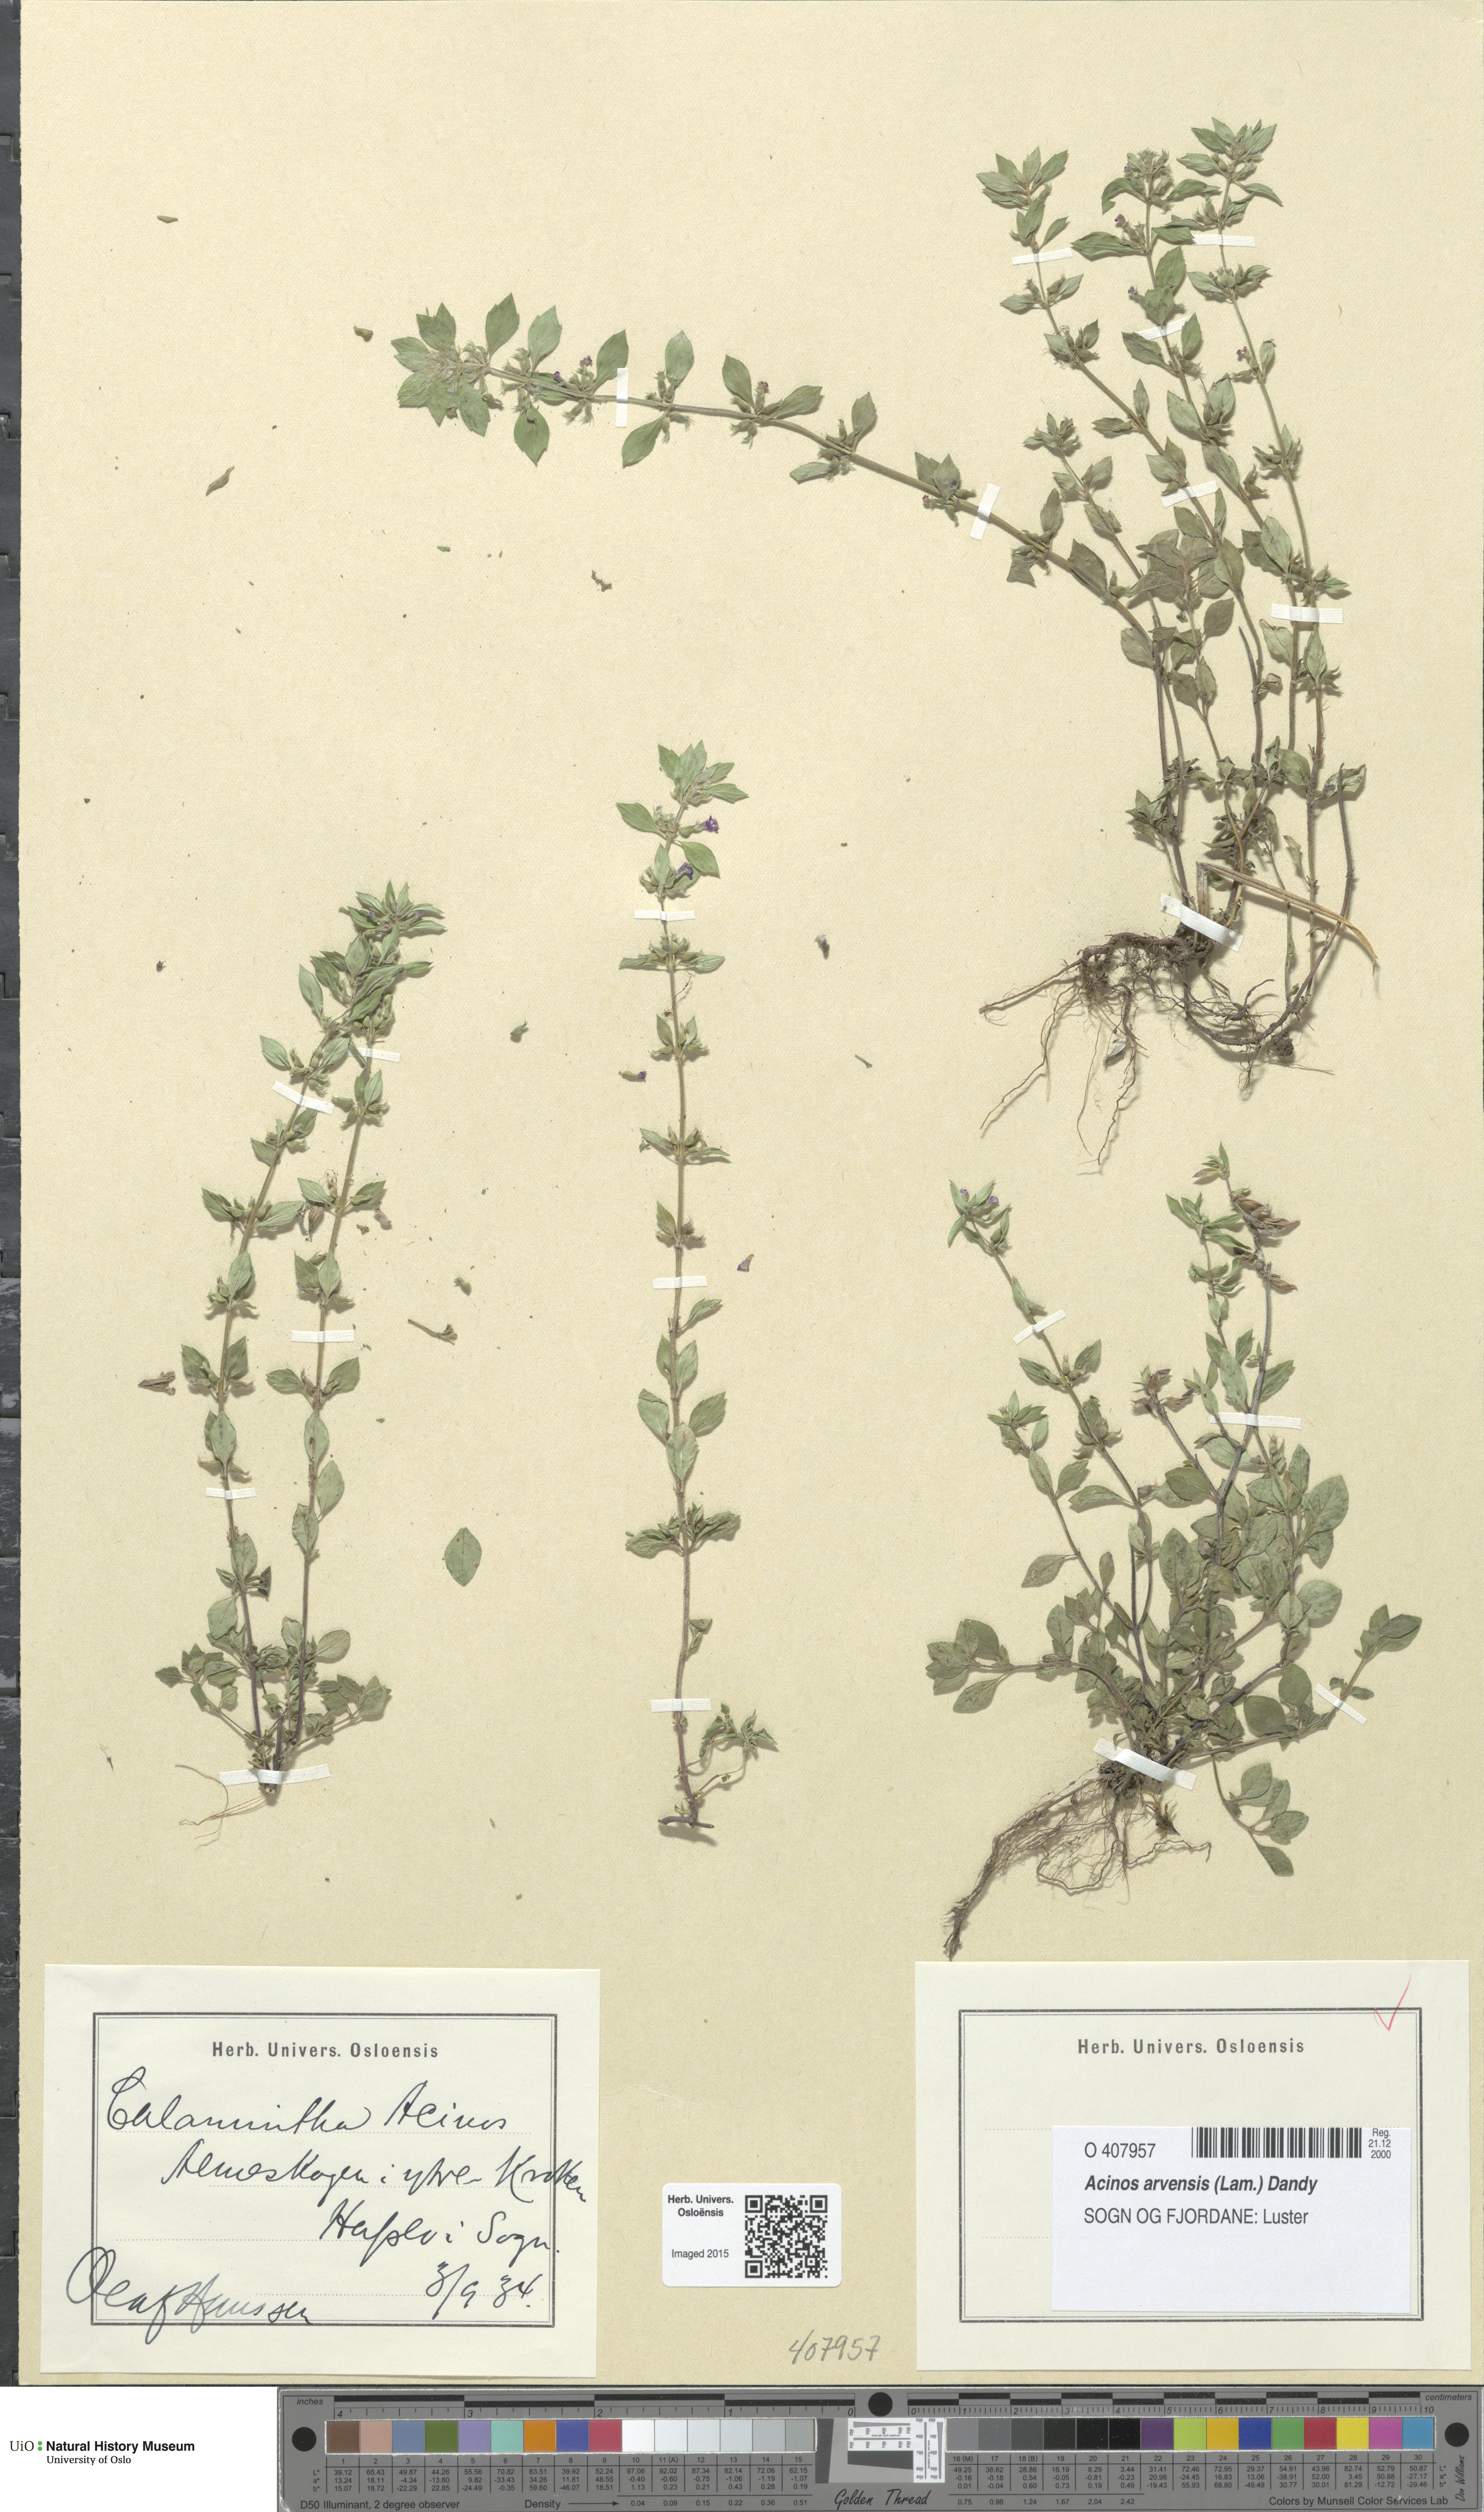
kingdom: Plantae
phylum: Tracheophyta
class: Magnoliopsida
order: Lamiales
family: Lamiaceae
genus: Clinopodium
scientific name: Clinopodium acinos
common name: Basil thyme
